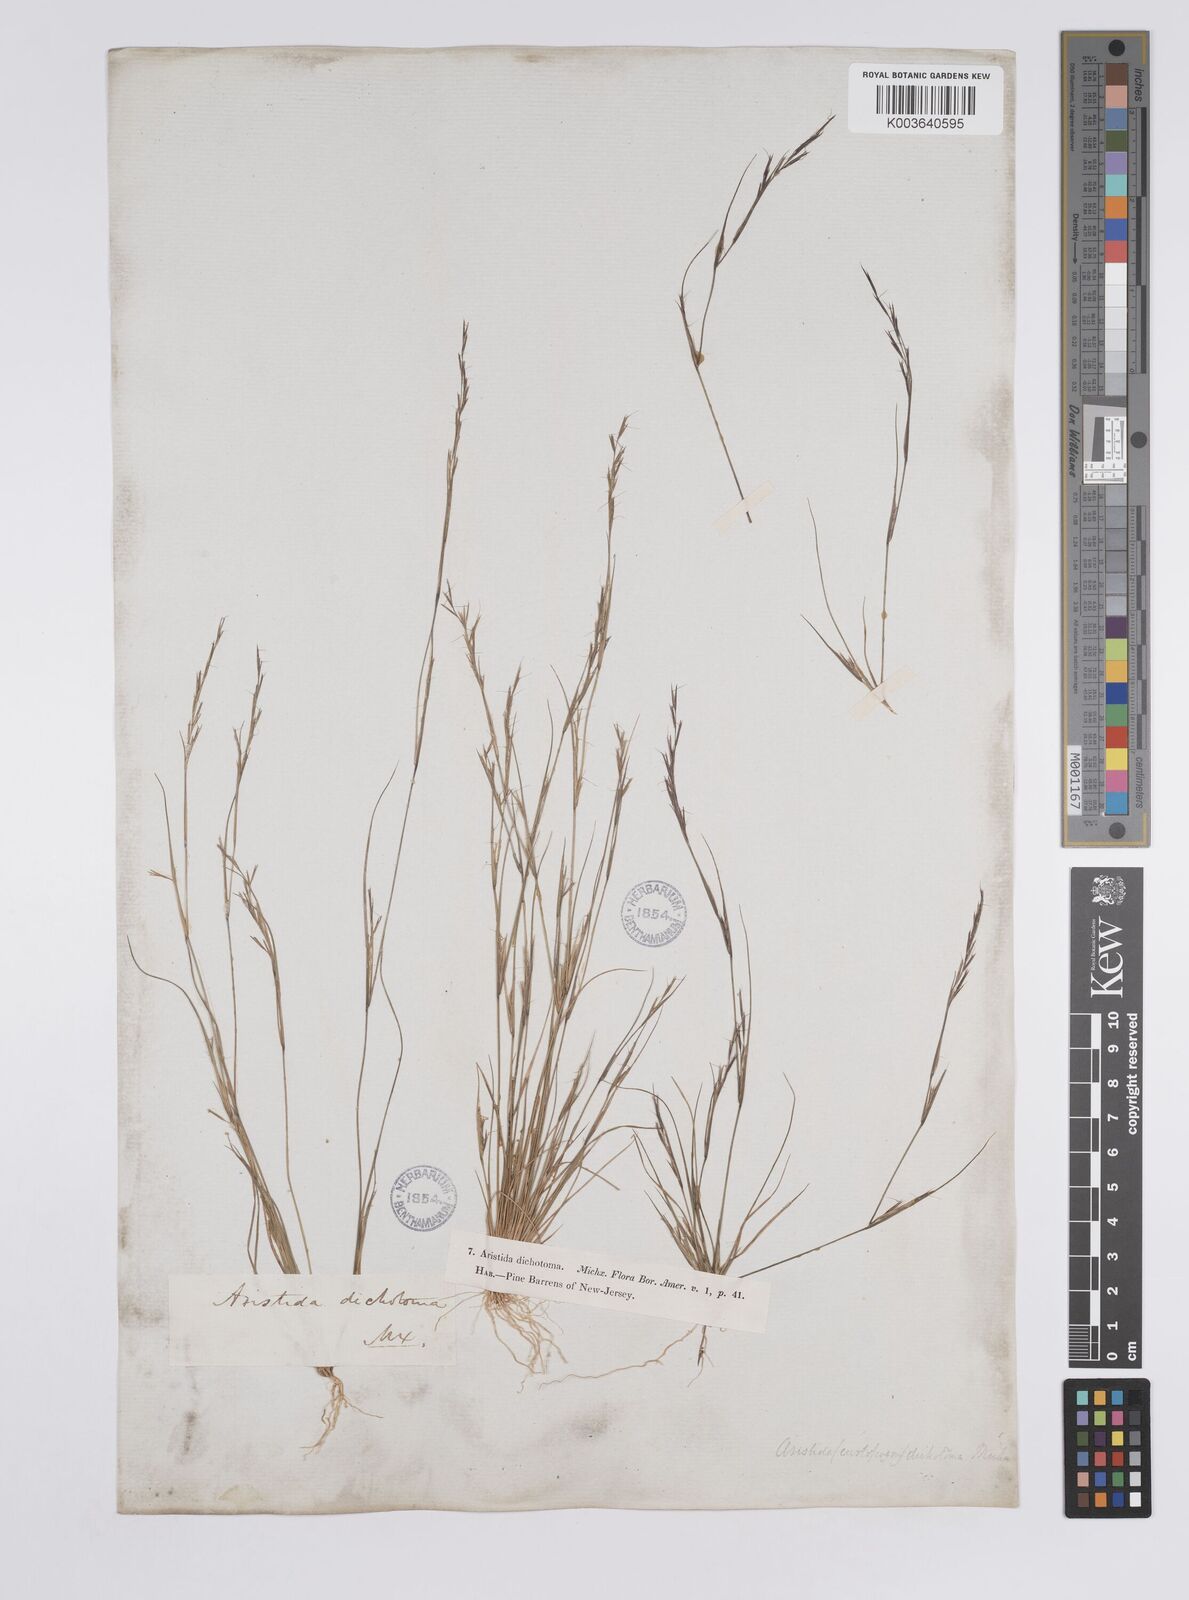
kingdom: Plantae
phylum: Tracheophyta
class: Liliopsida
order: Poales
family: Poaceae
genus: Aristida
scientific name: Aristida dichotoma
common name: Churchmouse three-awn
